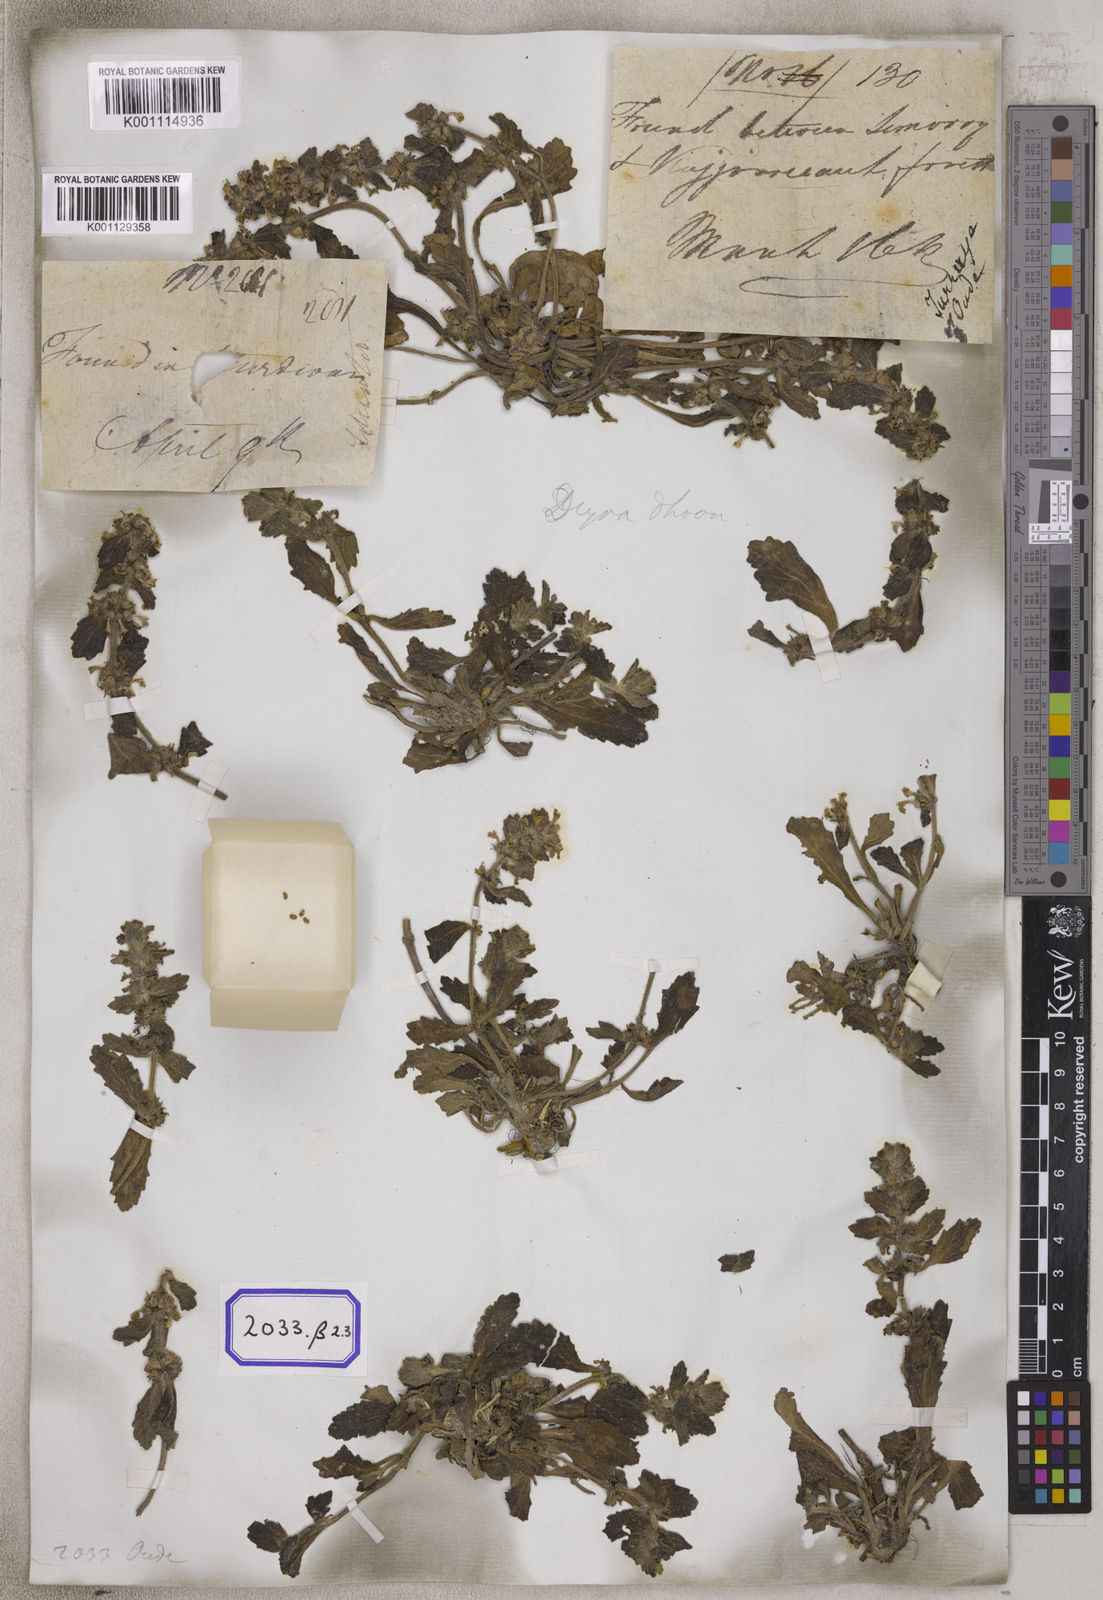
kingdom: Plantae
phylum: Tracheophyta
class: Magnoliopsida
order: Lamiales
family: Lamiaceae
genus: Ajuga
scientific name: Ajuga
